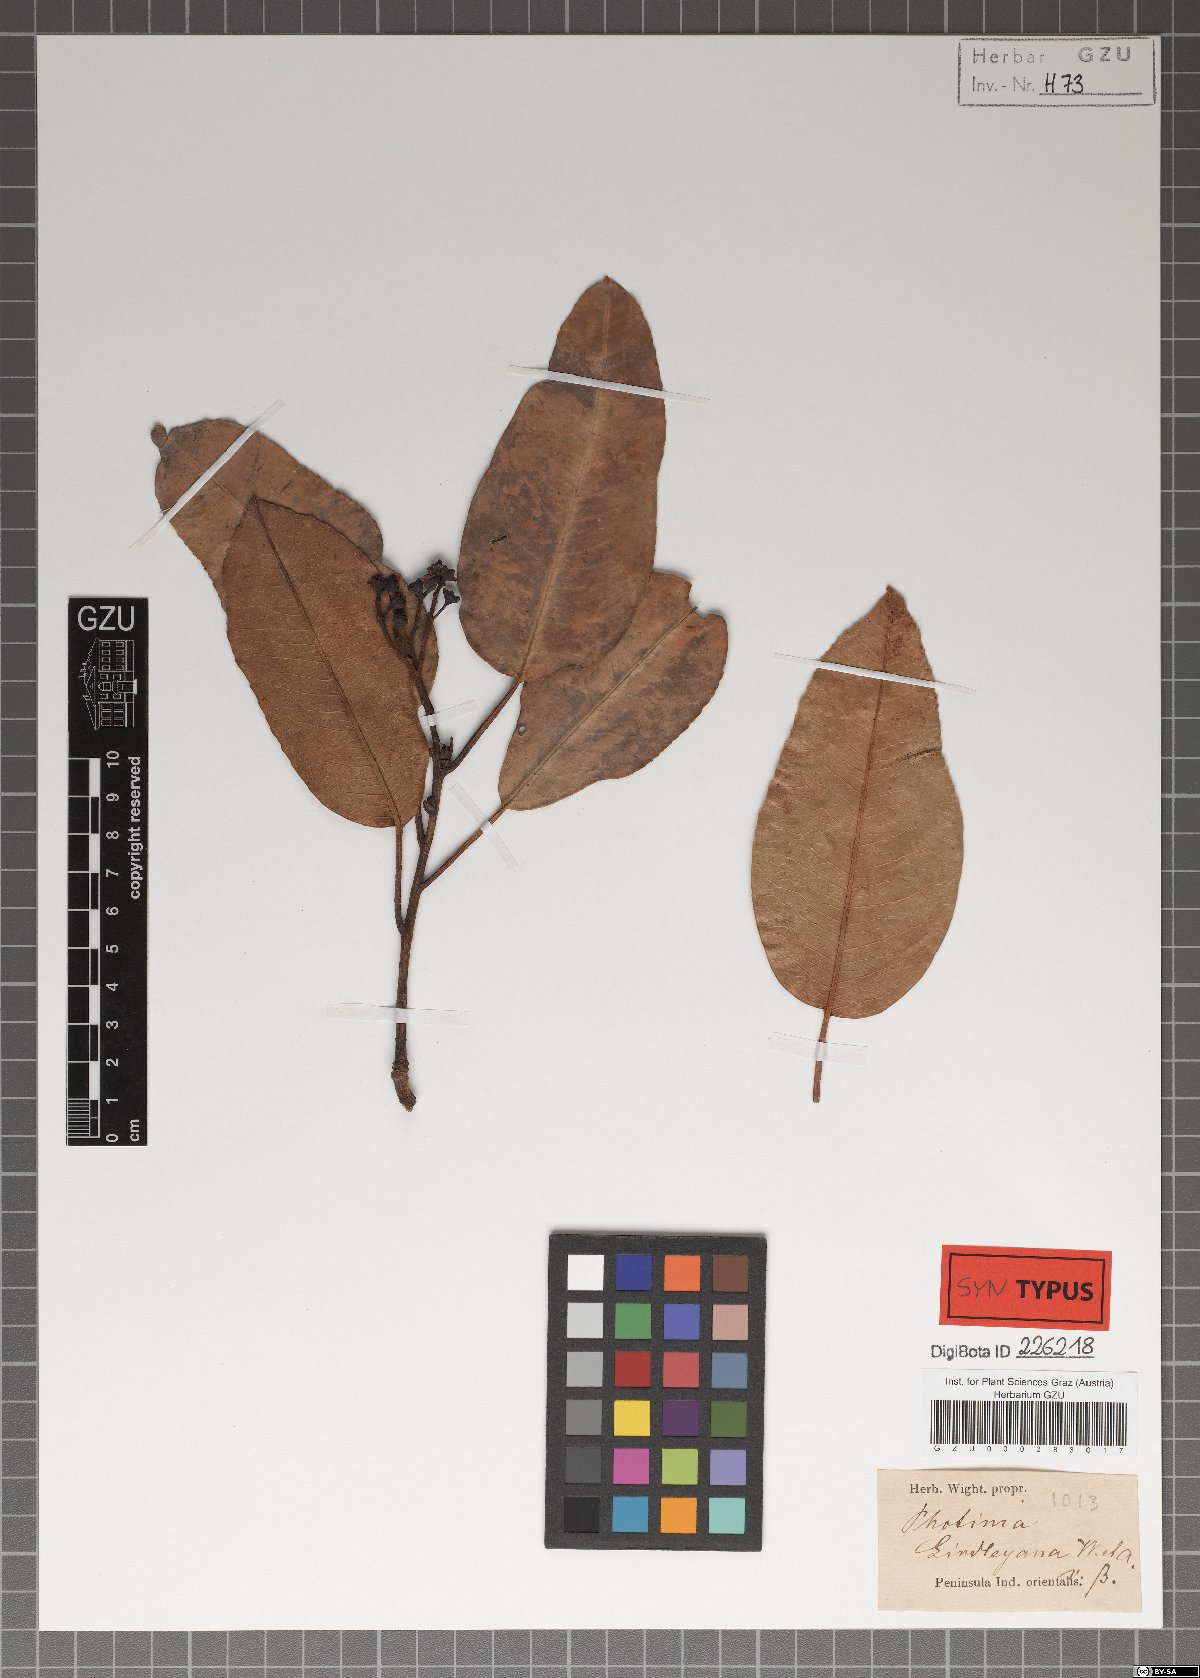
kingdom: Plantae
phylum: Tracheophyta
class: Magnoliopsida
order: Rosales
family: Rosaceae
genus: Photinia
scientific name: Photinia lindleyana
